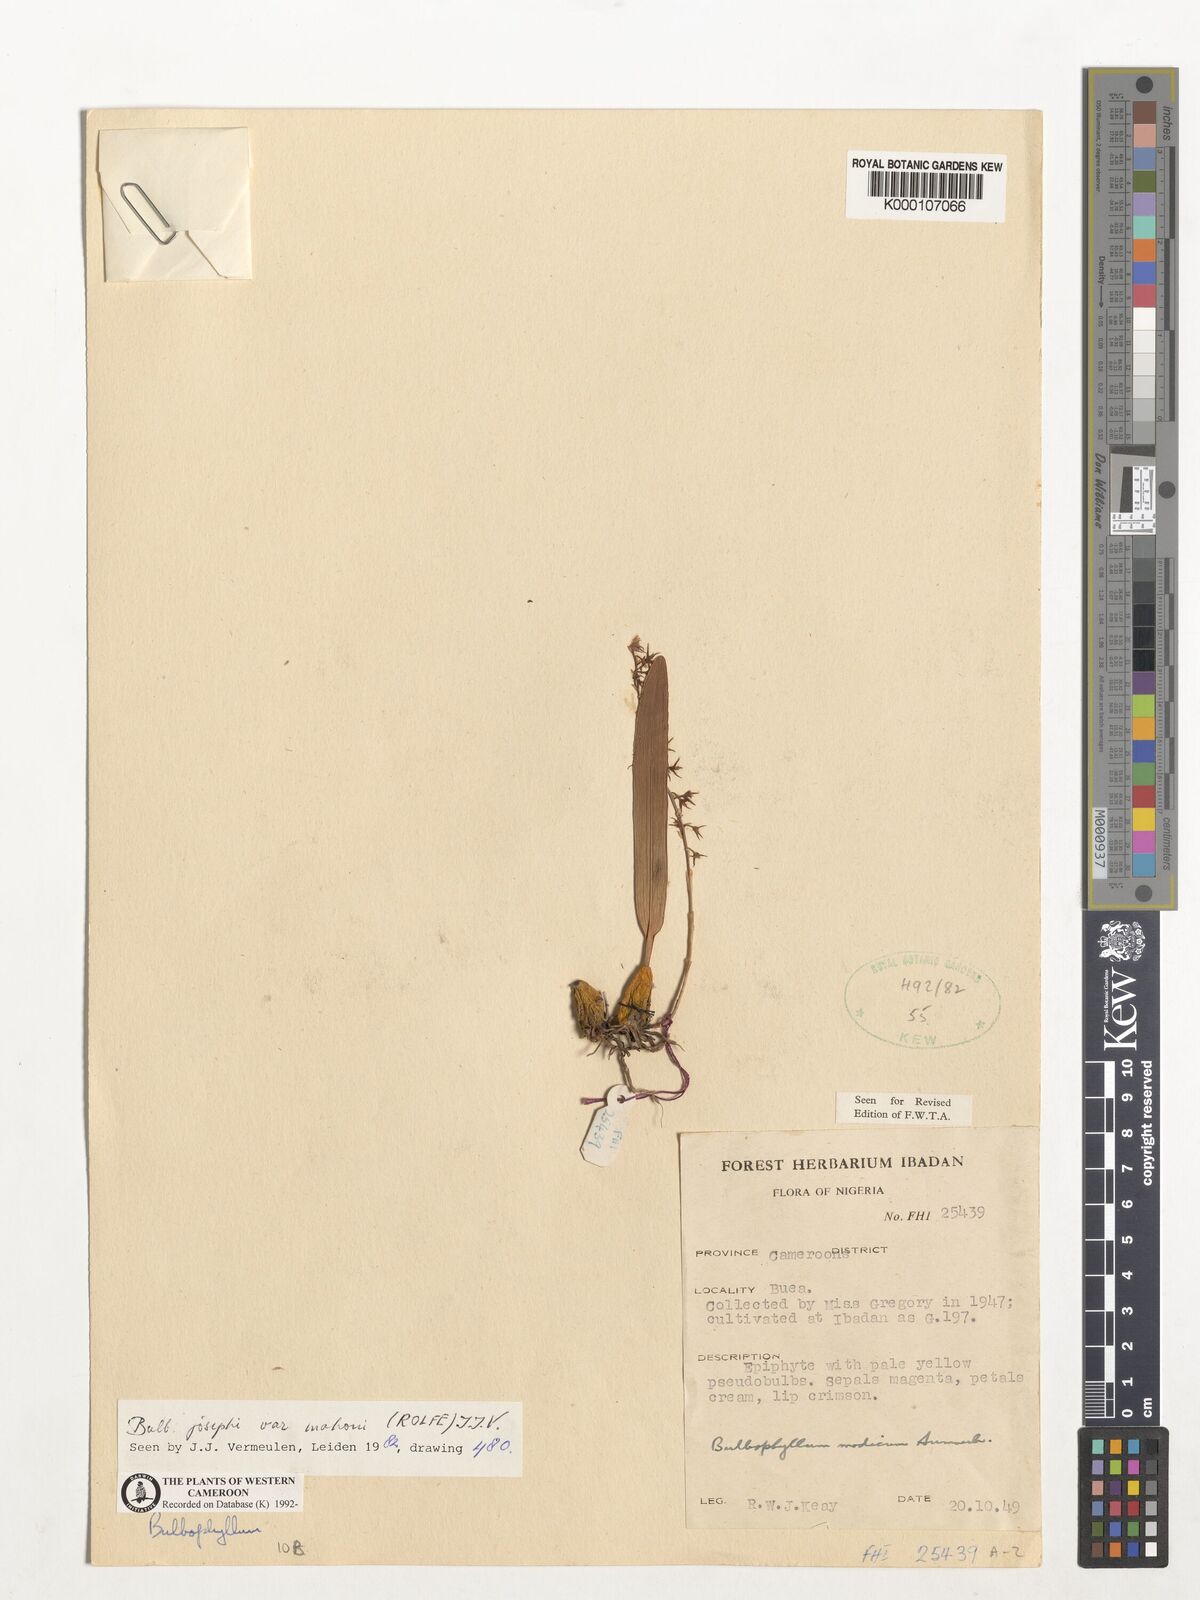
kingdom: Plantae
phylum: Tracheophyta
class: Liliopsida
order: Asparagales
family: Orchidaceae
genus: Bulbophyllum
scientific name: Bulbophyllum josephi
